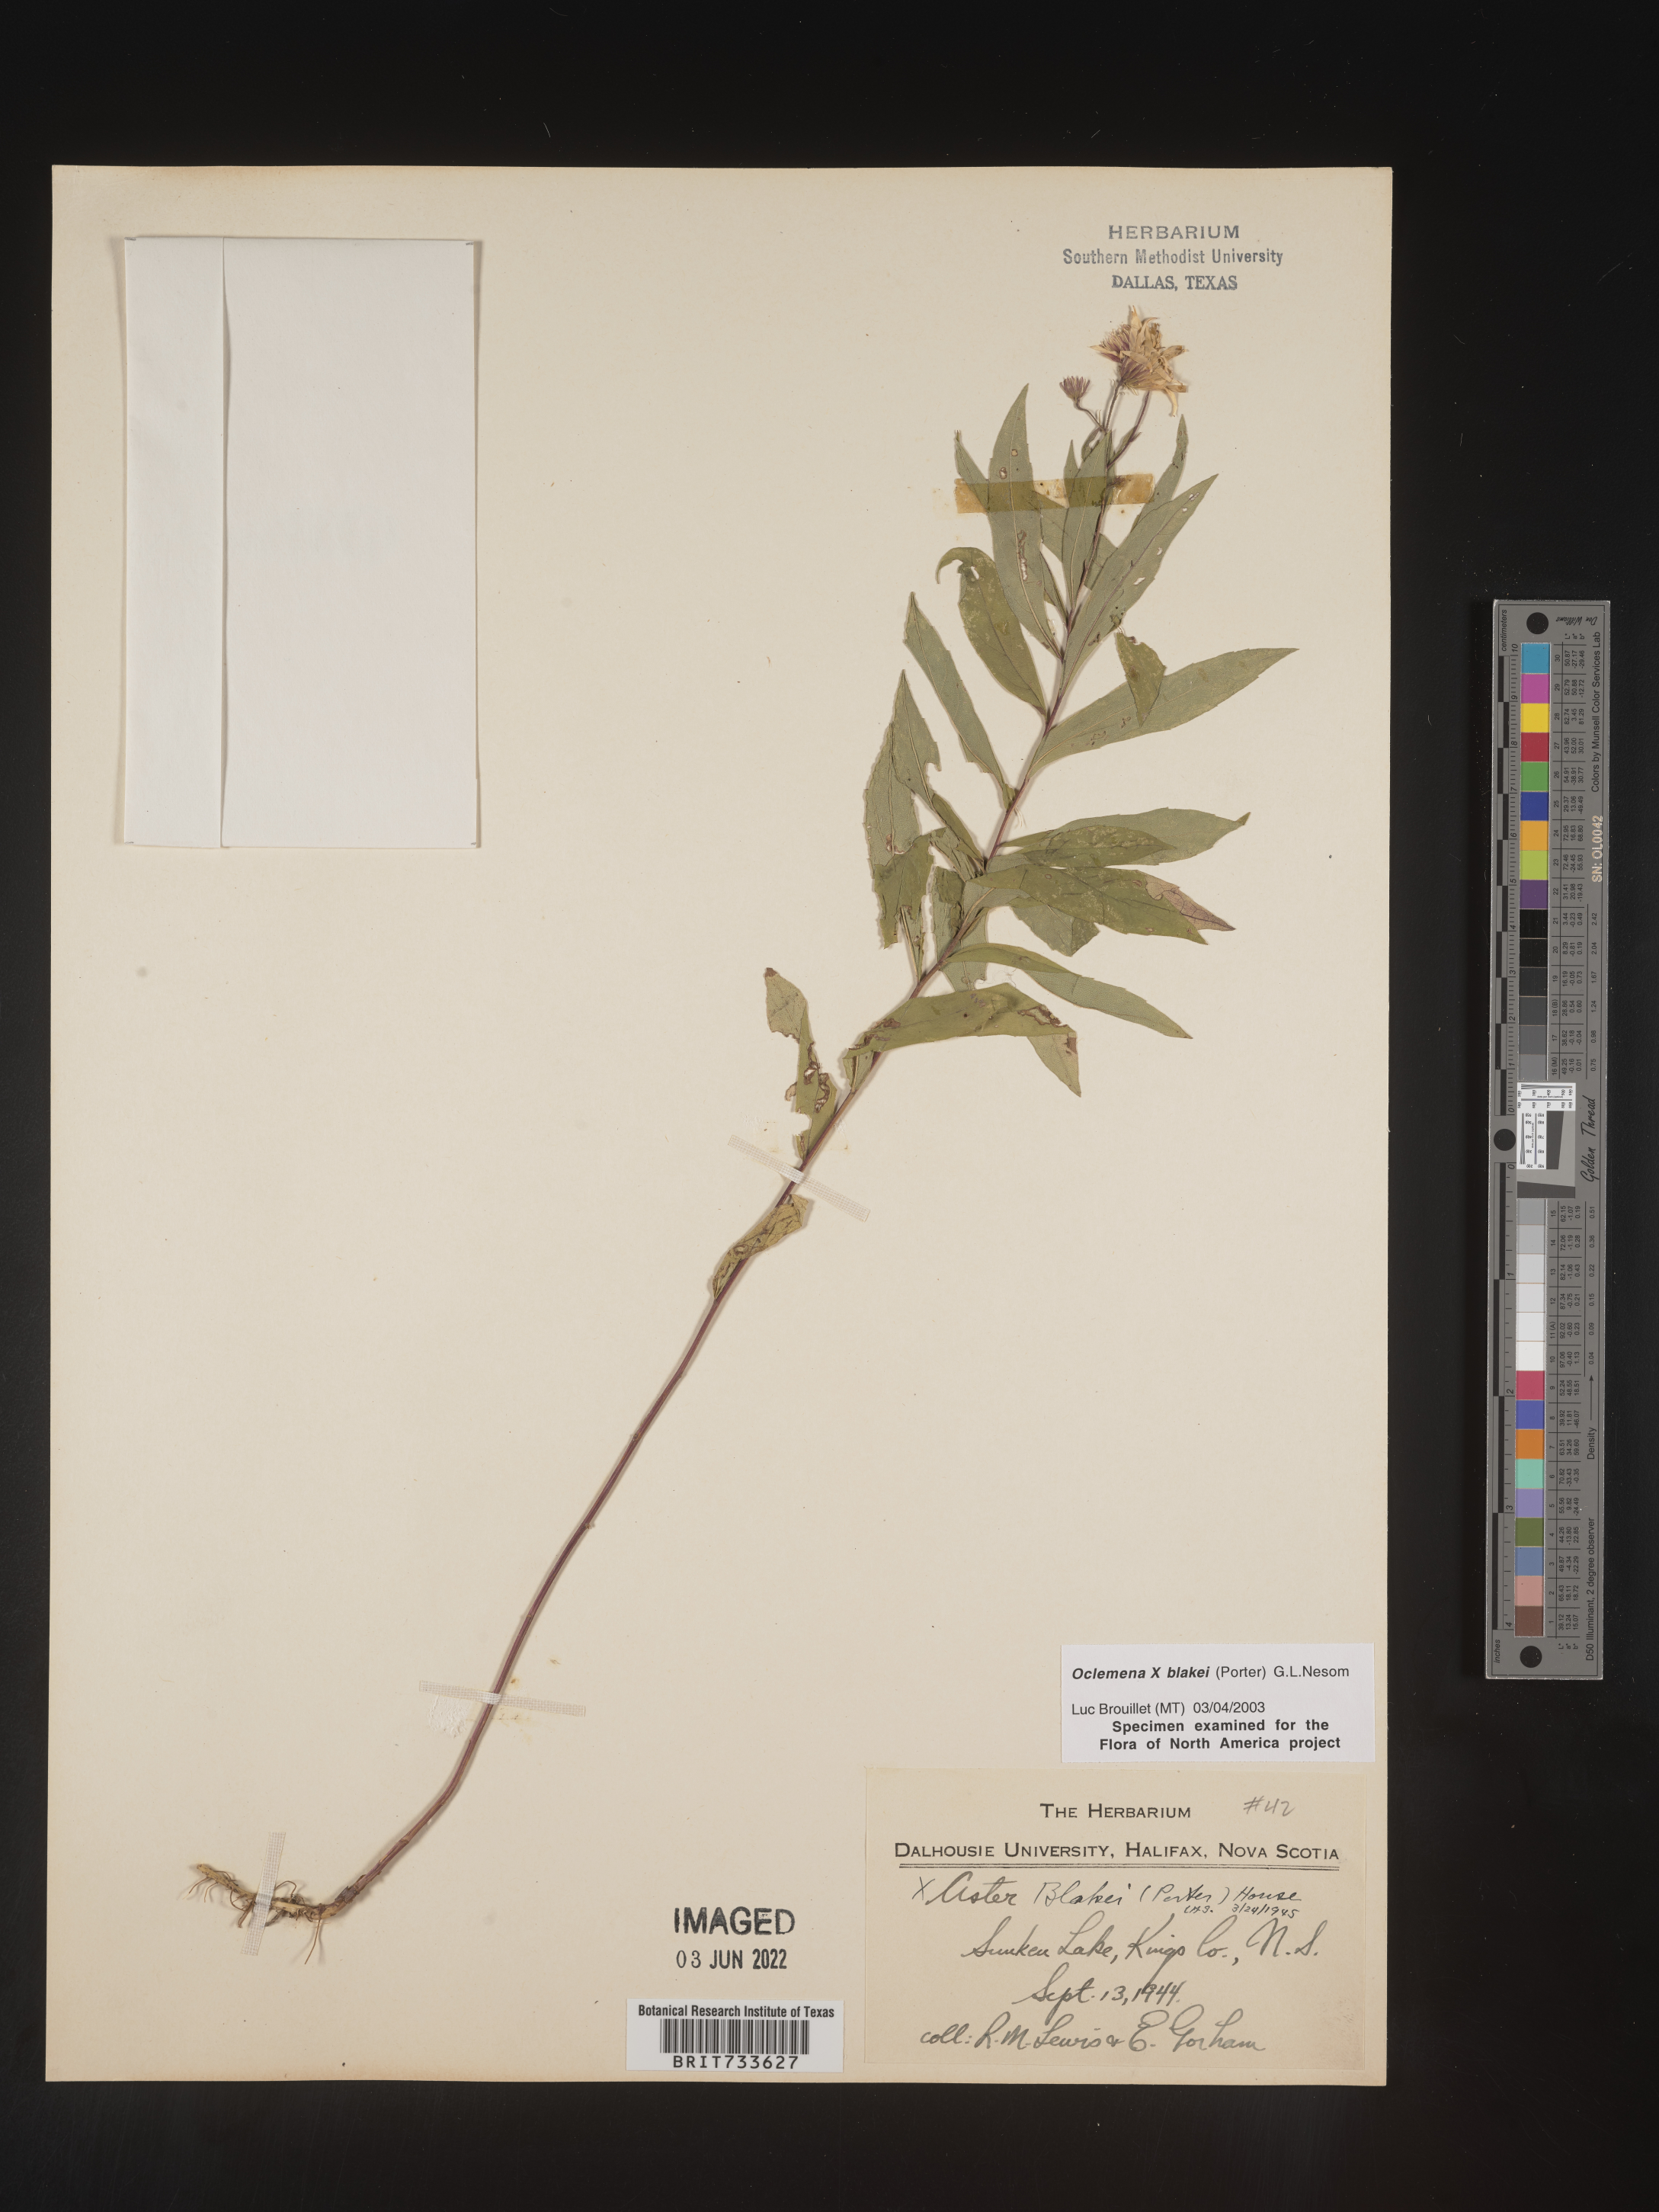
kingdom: Plantae
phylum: Tracheophyta
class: Magnoliopsida
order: Asterales
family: Asteraceae
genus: Oclemena
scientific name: Oclemena blakei
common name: Blake's aster
